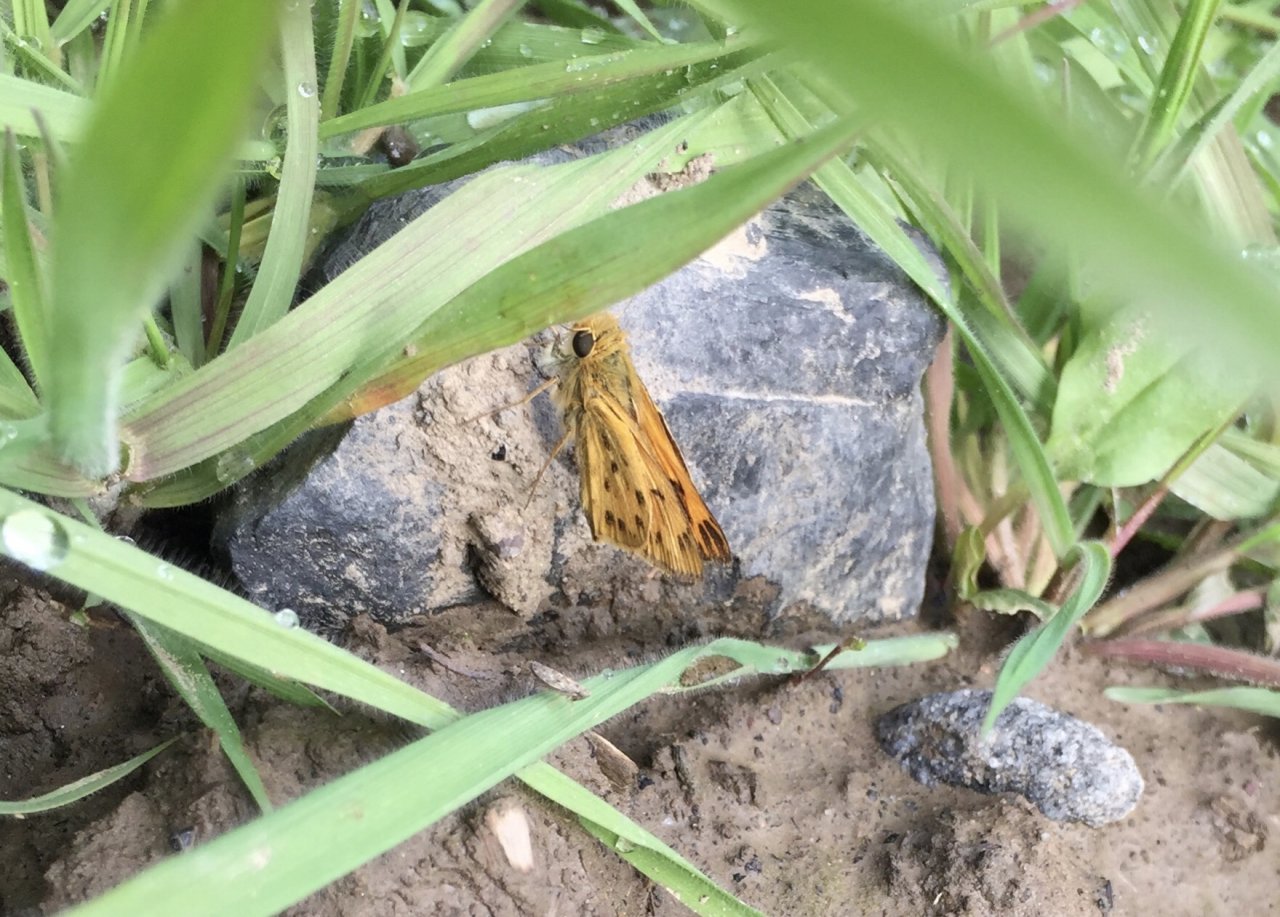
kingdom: Animalia
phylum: Arthropoda
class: Insecta
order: Lepidoptera
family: Hesperiidae
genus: Hylephila
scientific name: Hylephila phyleus
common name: Fiery Skipper
